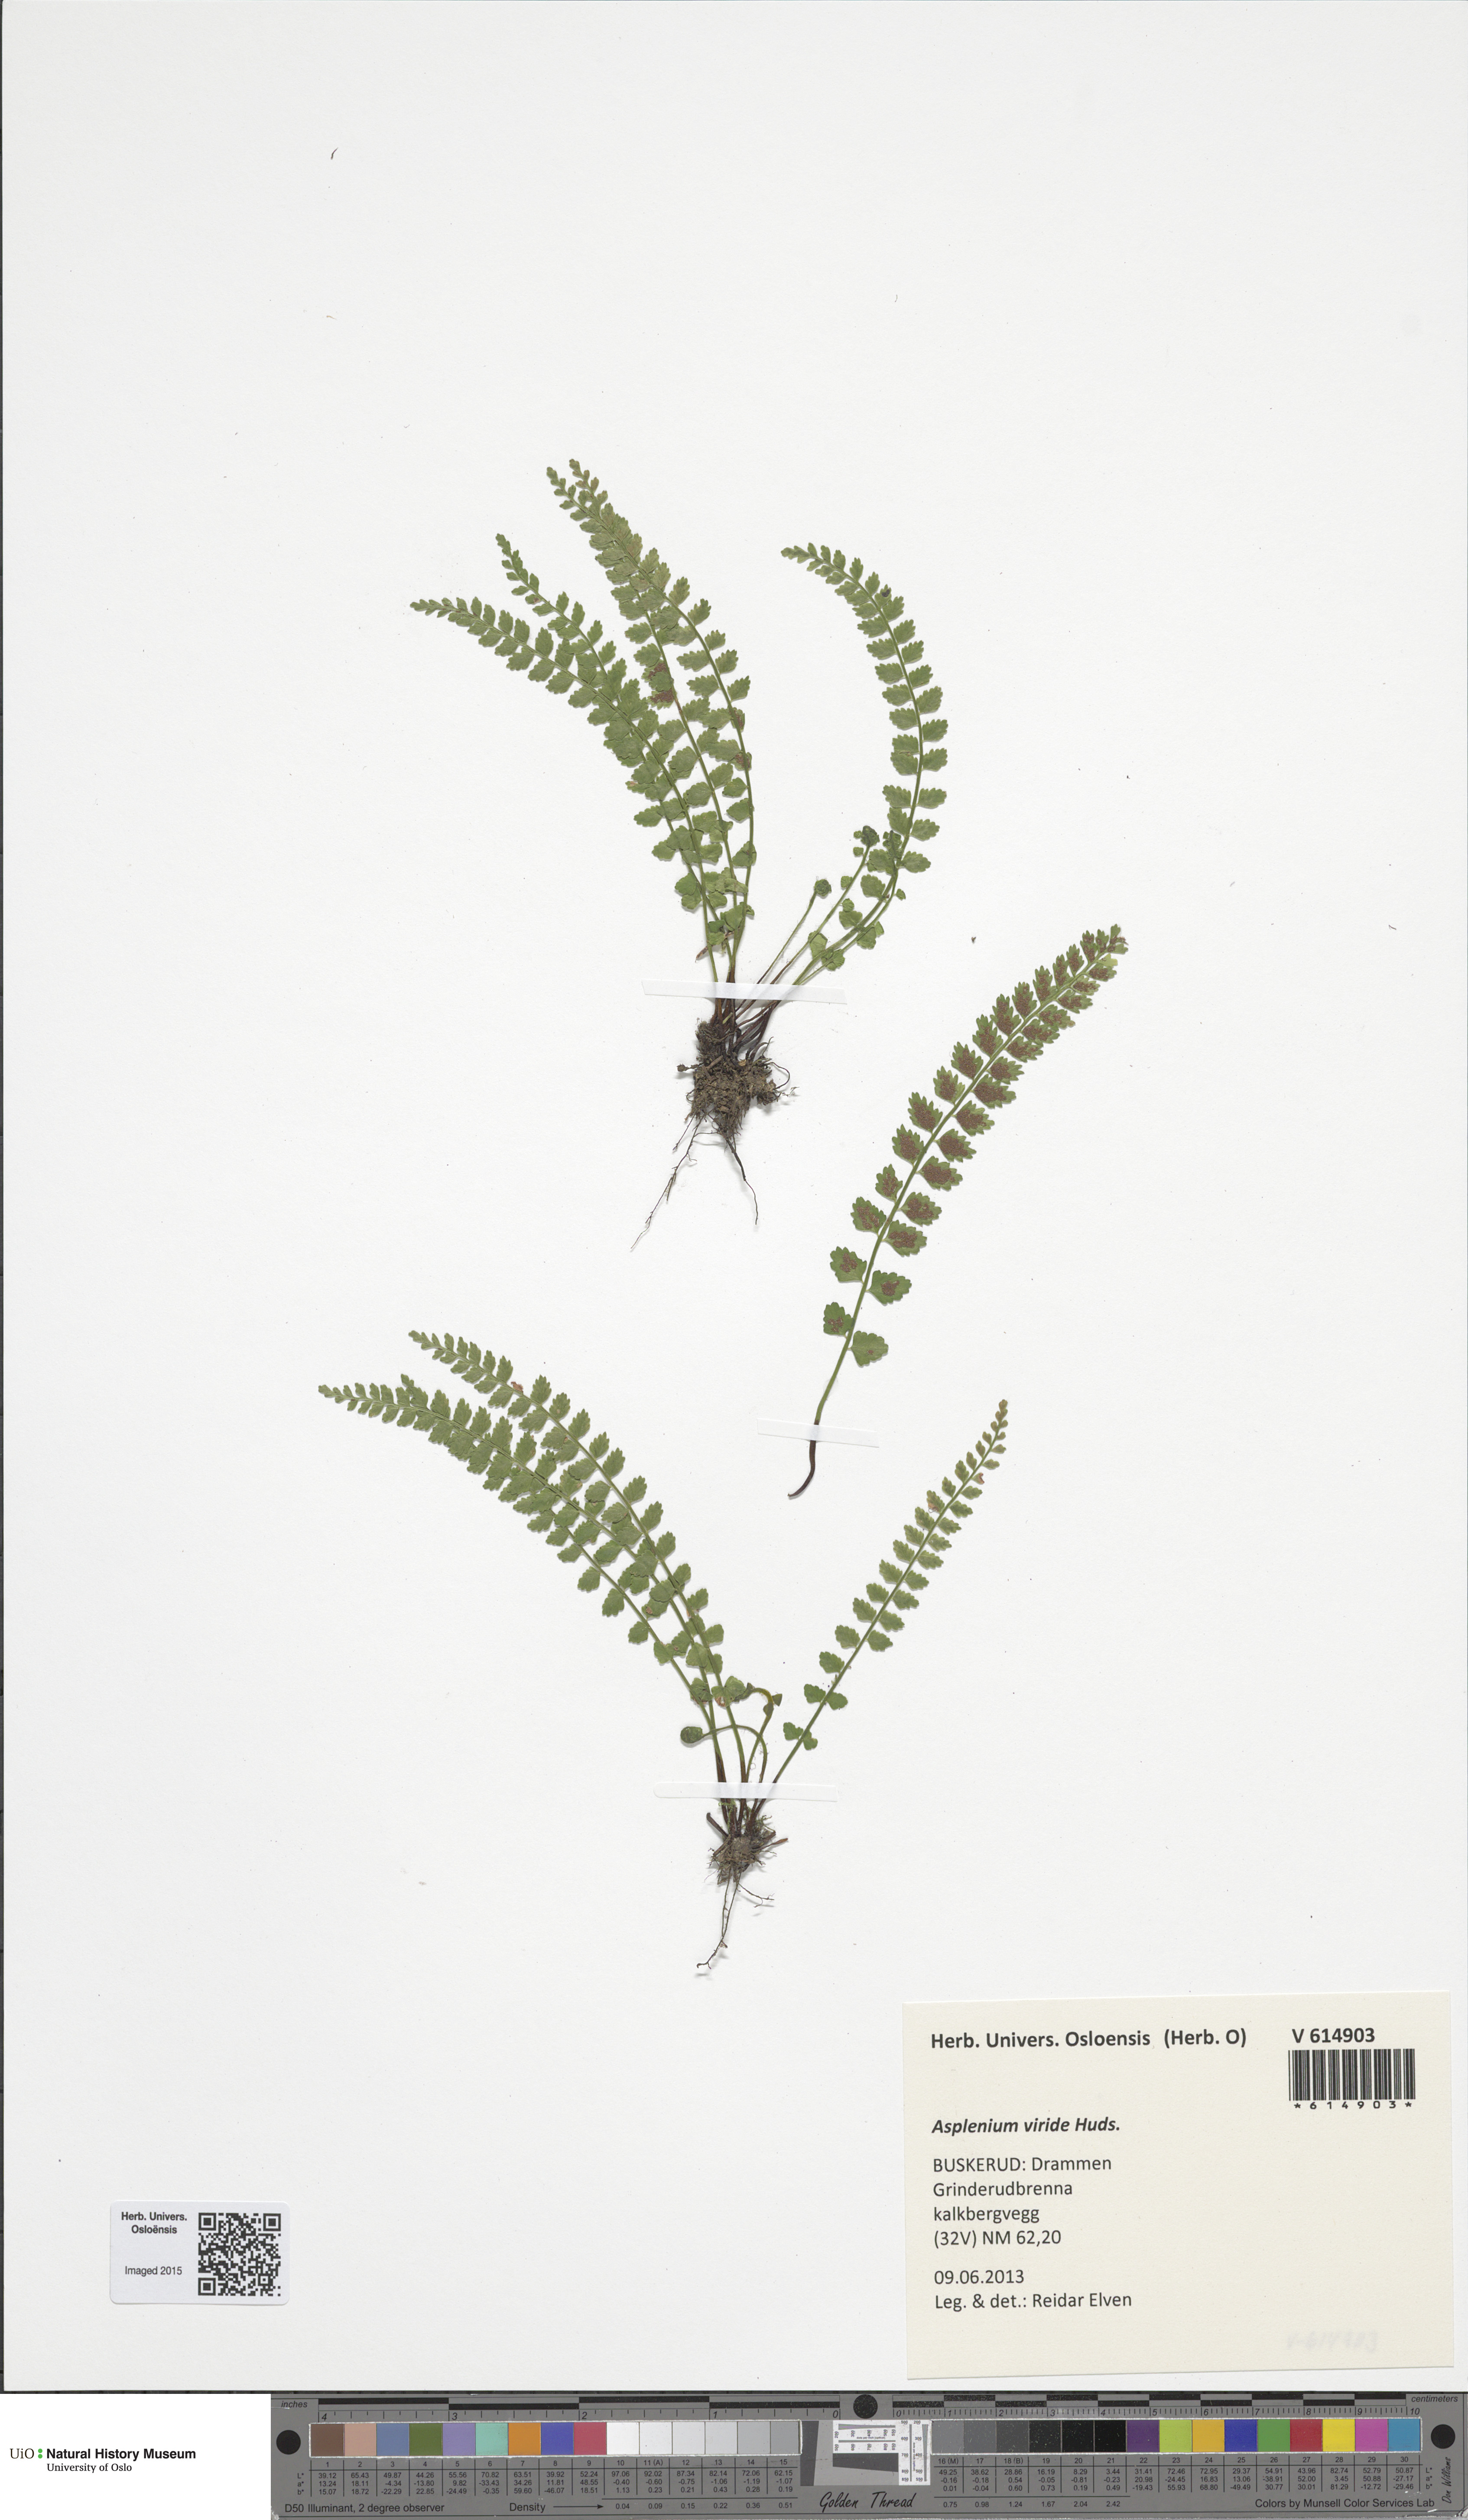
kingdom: Plantae
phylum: Tracheophyta
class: Polypodiopsida
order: Polypodiales
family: Aspleniaceae
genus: Asplenium
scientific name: Asplenium viride
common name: Green spleenwort
